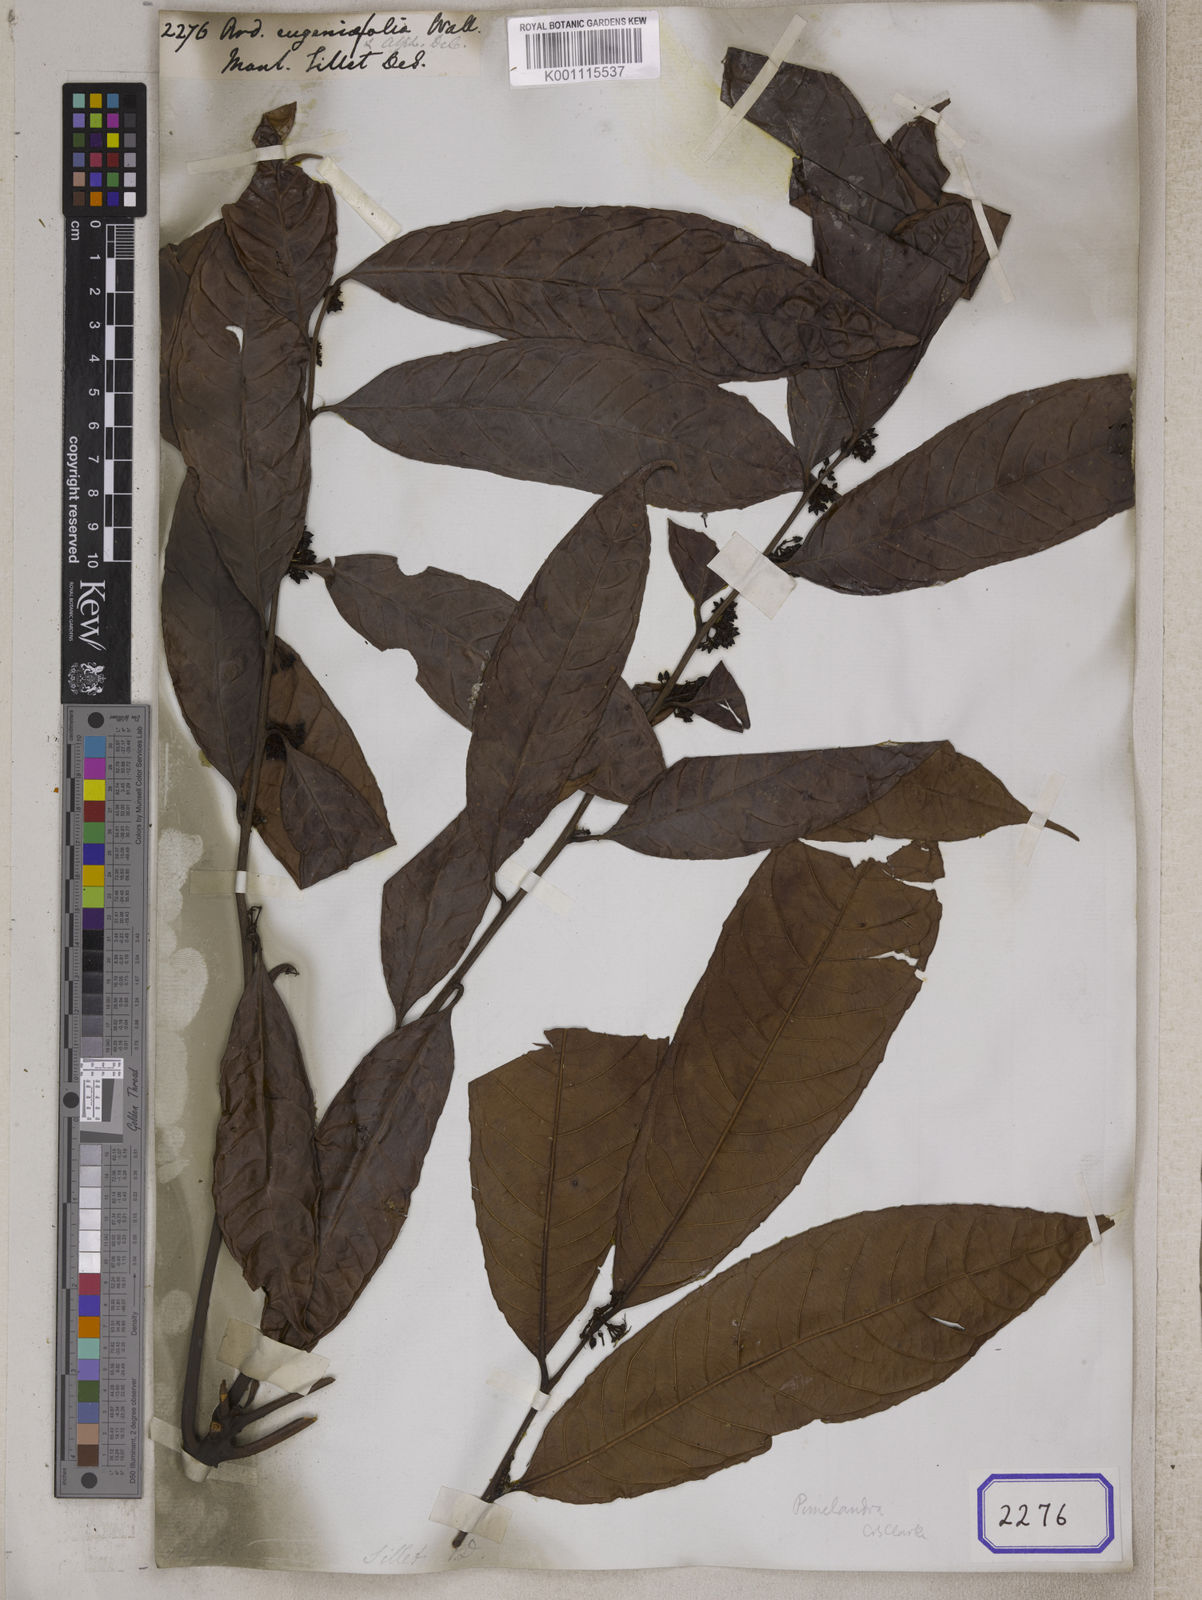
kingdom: Plantae
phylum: Tracheophyta
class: Magnoliopsida
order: Ericales
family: Primulaceae
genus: Ardisia
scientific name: Ardisia
